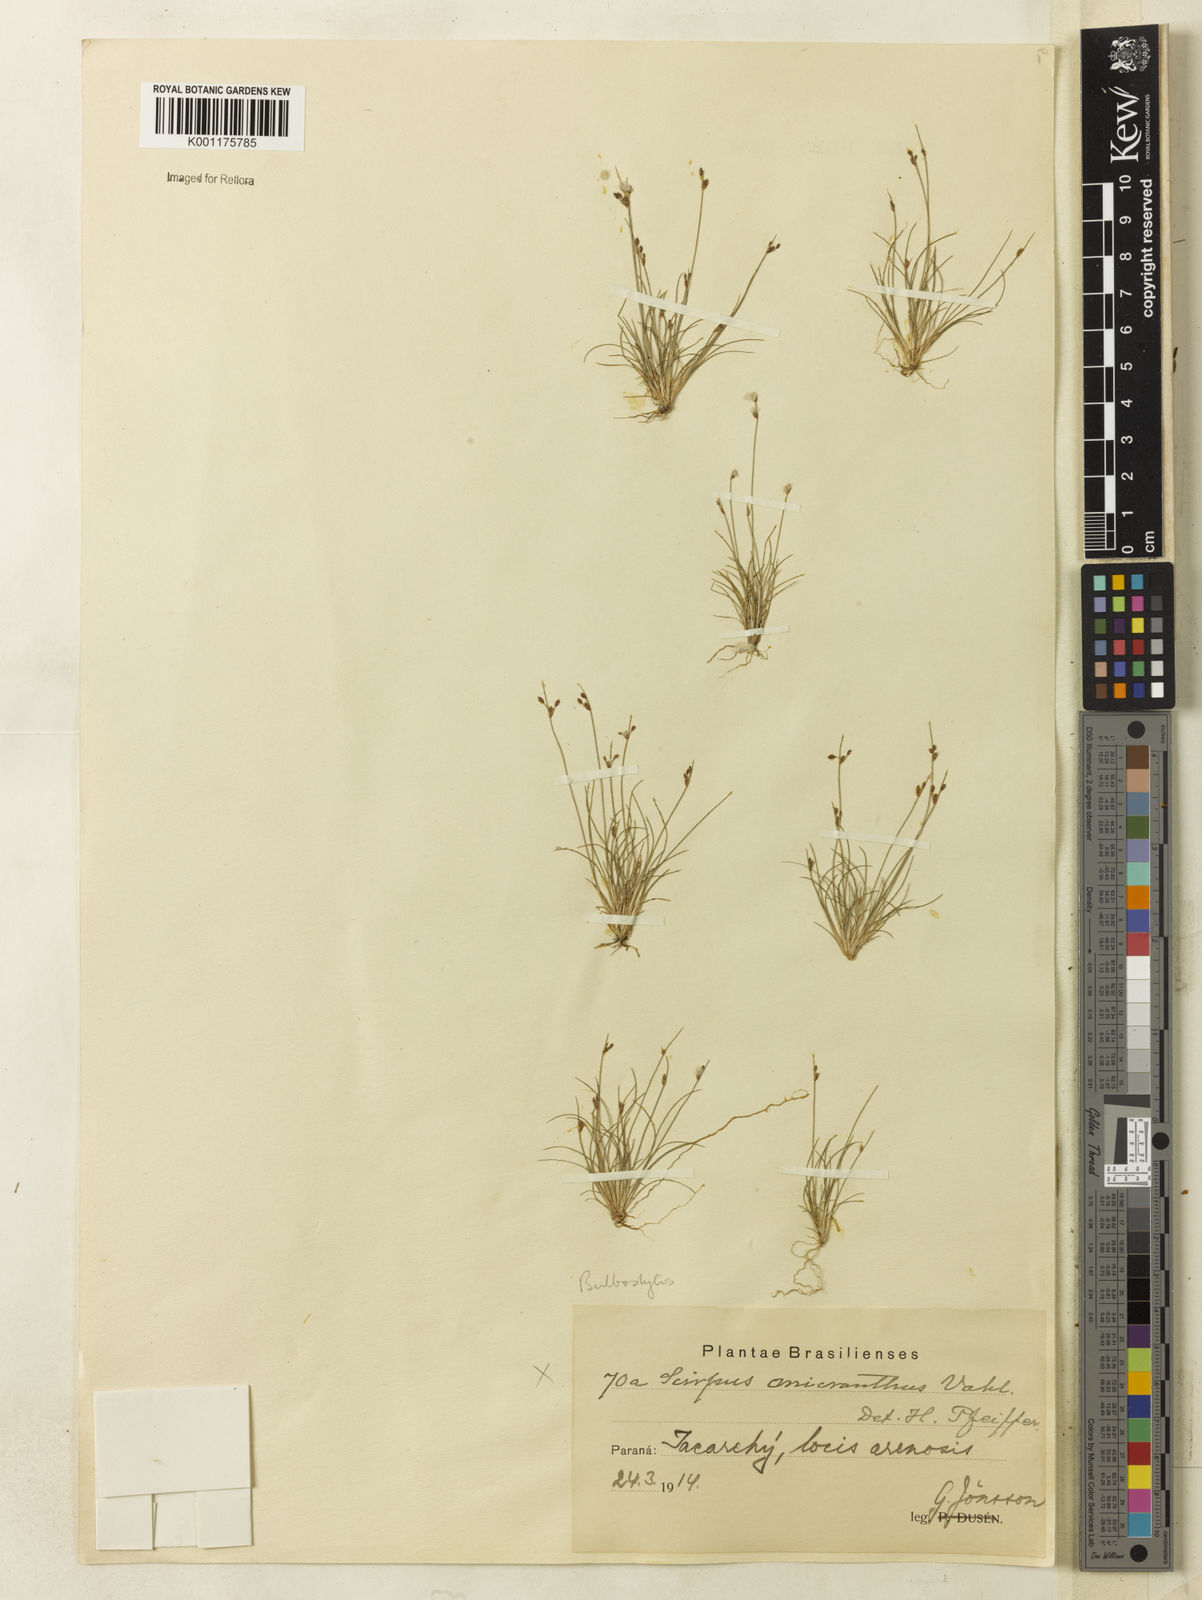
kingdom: Plantae
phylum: Tracheophyta
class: Liliopsida
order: Poales
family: Cyperaceae
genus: Bulbostylis
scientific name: Bulbostylis capillaris
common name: Densetuft hairsedge
